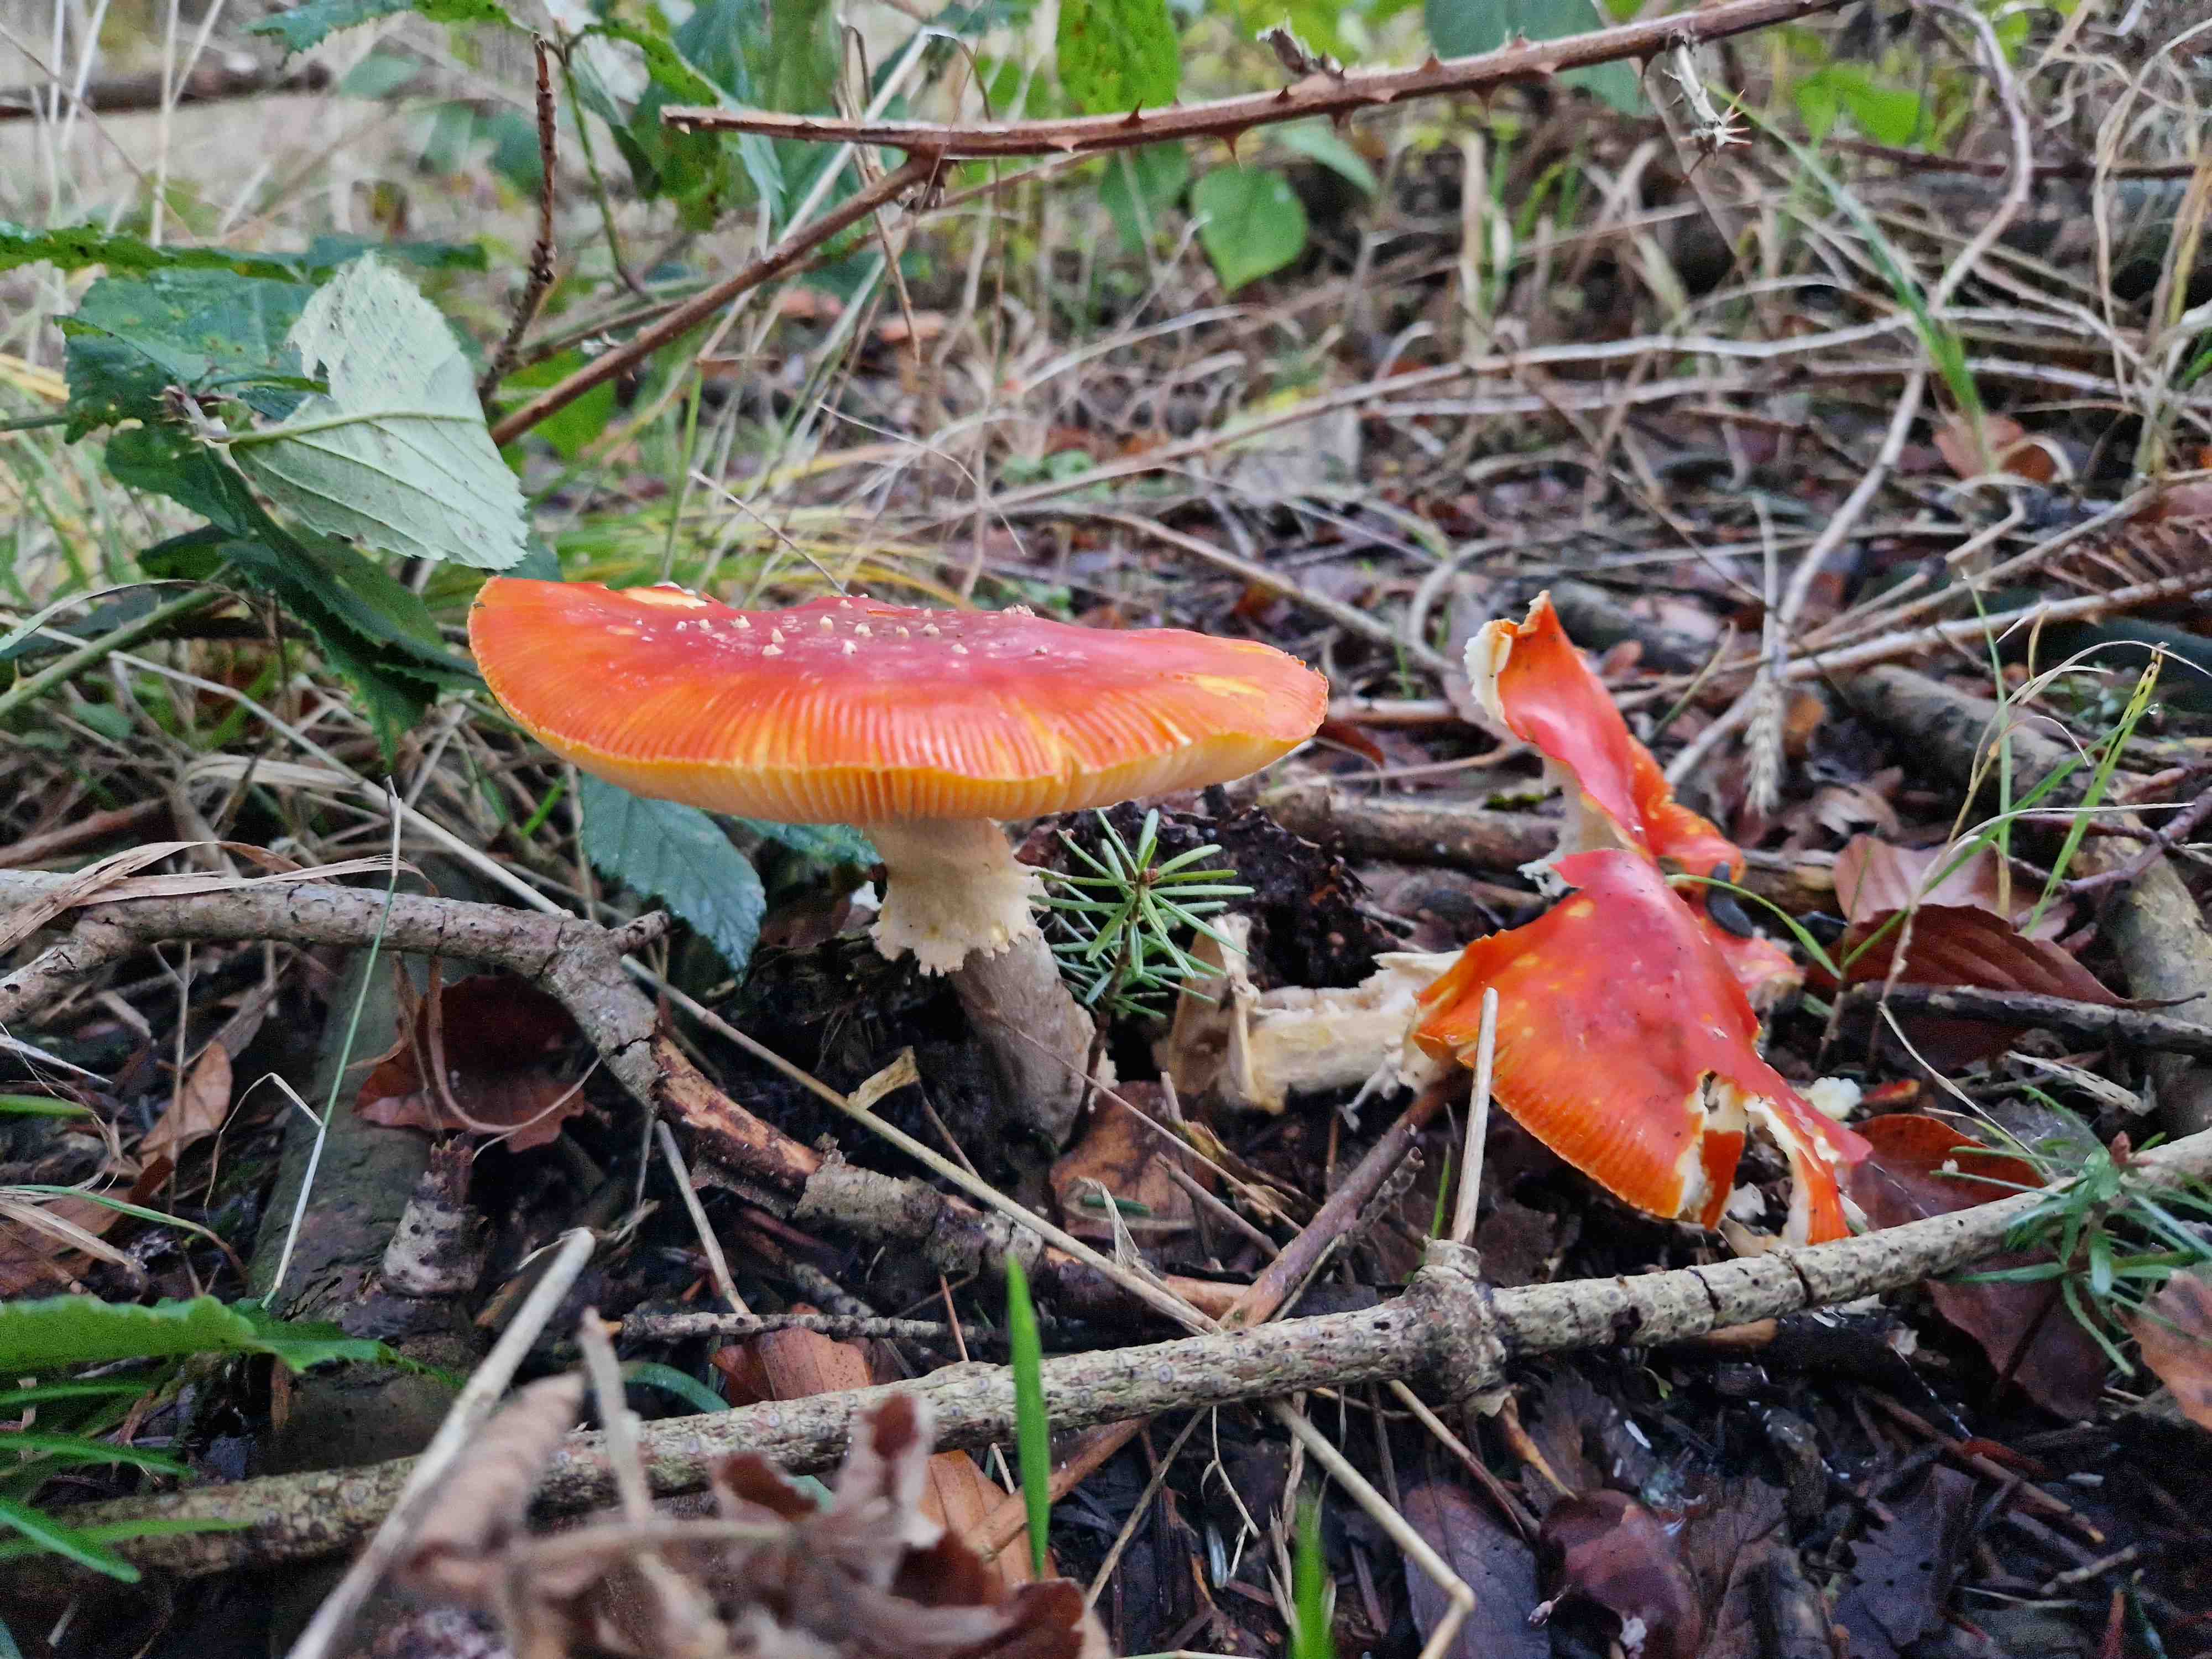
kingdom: Fungi
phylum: Basidiomycota
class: Agaricomycetes
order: Agaricales
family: Amanitaceae
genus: Amanita
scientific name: Amanita muscaria
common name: rød fluesvamp
